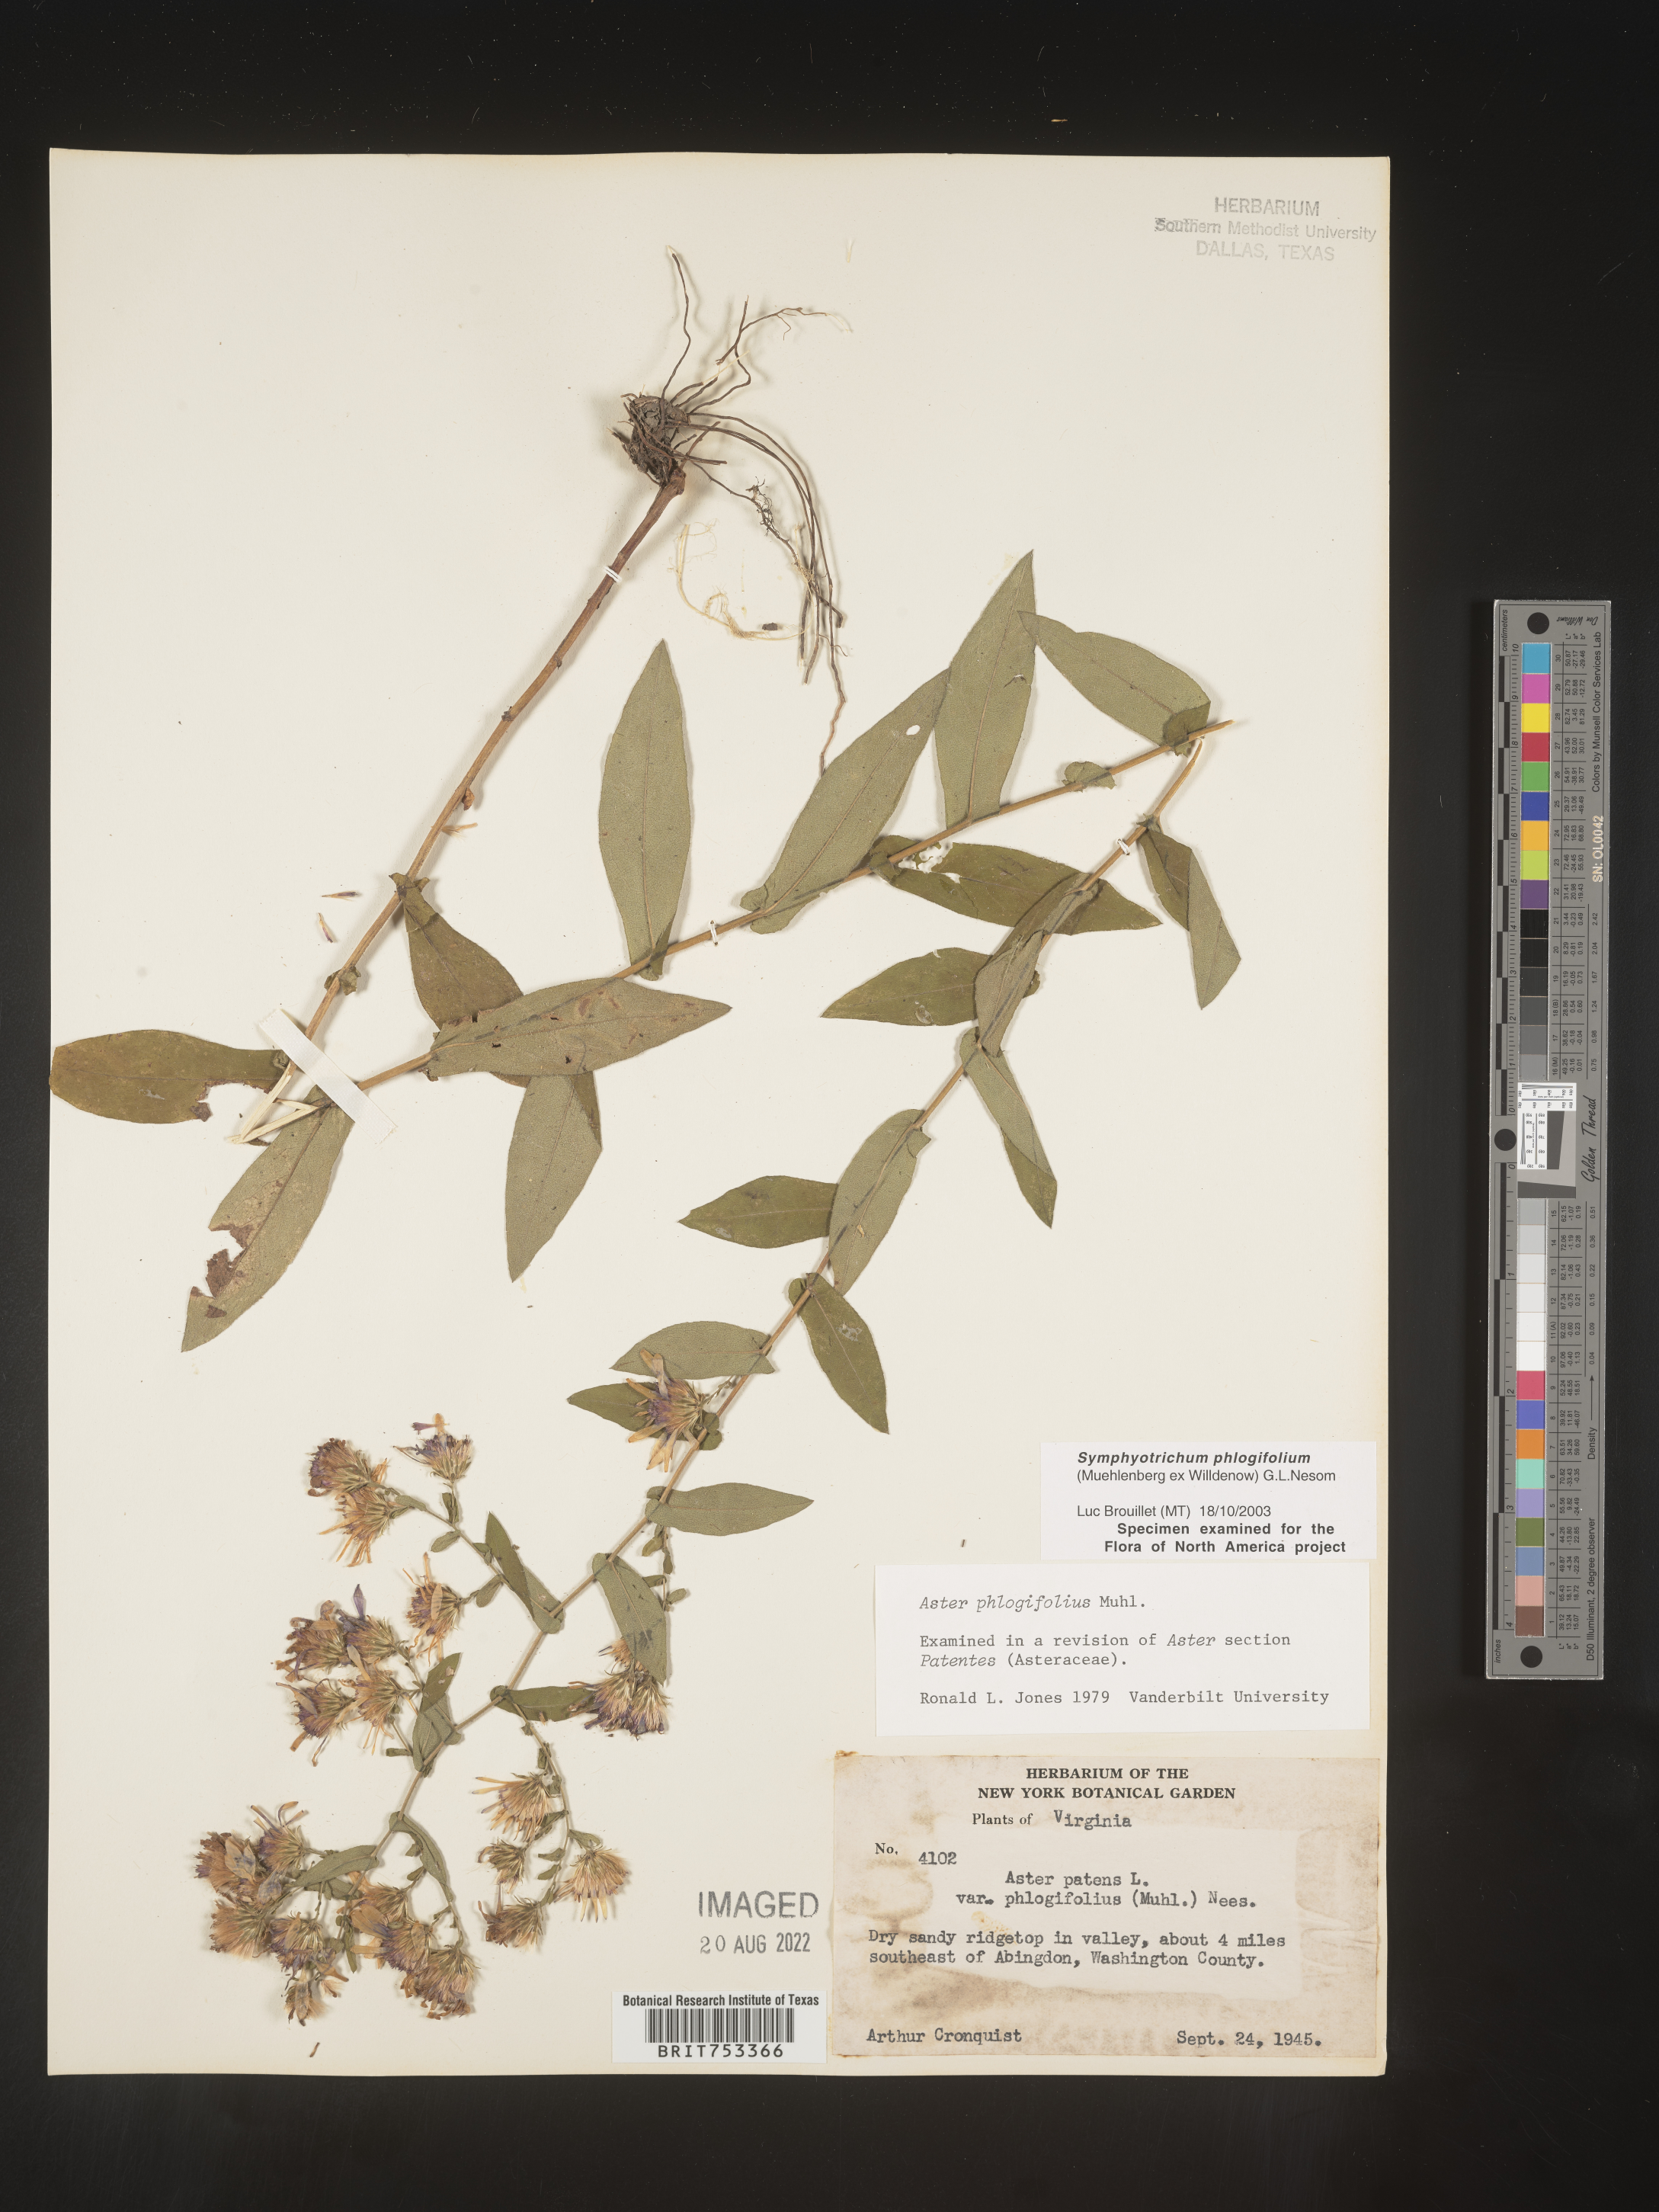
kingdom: Plantae
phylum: Tracheophyta
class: Magnoliopsida
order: Asterales
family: Asteraceae
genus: Symphyotrichum
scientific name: Symphyotrichum phlogifolium
